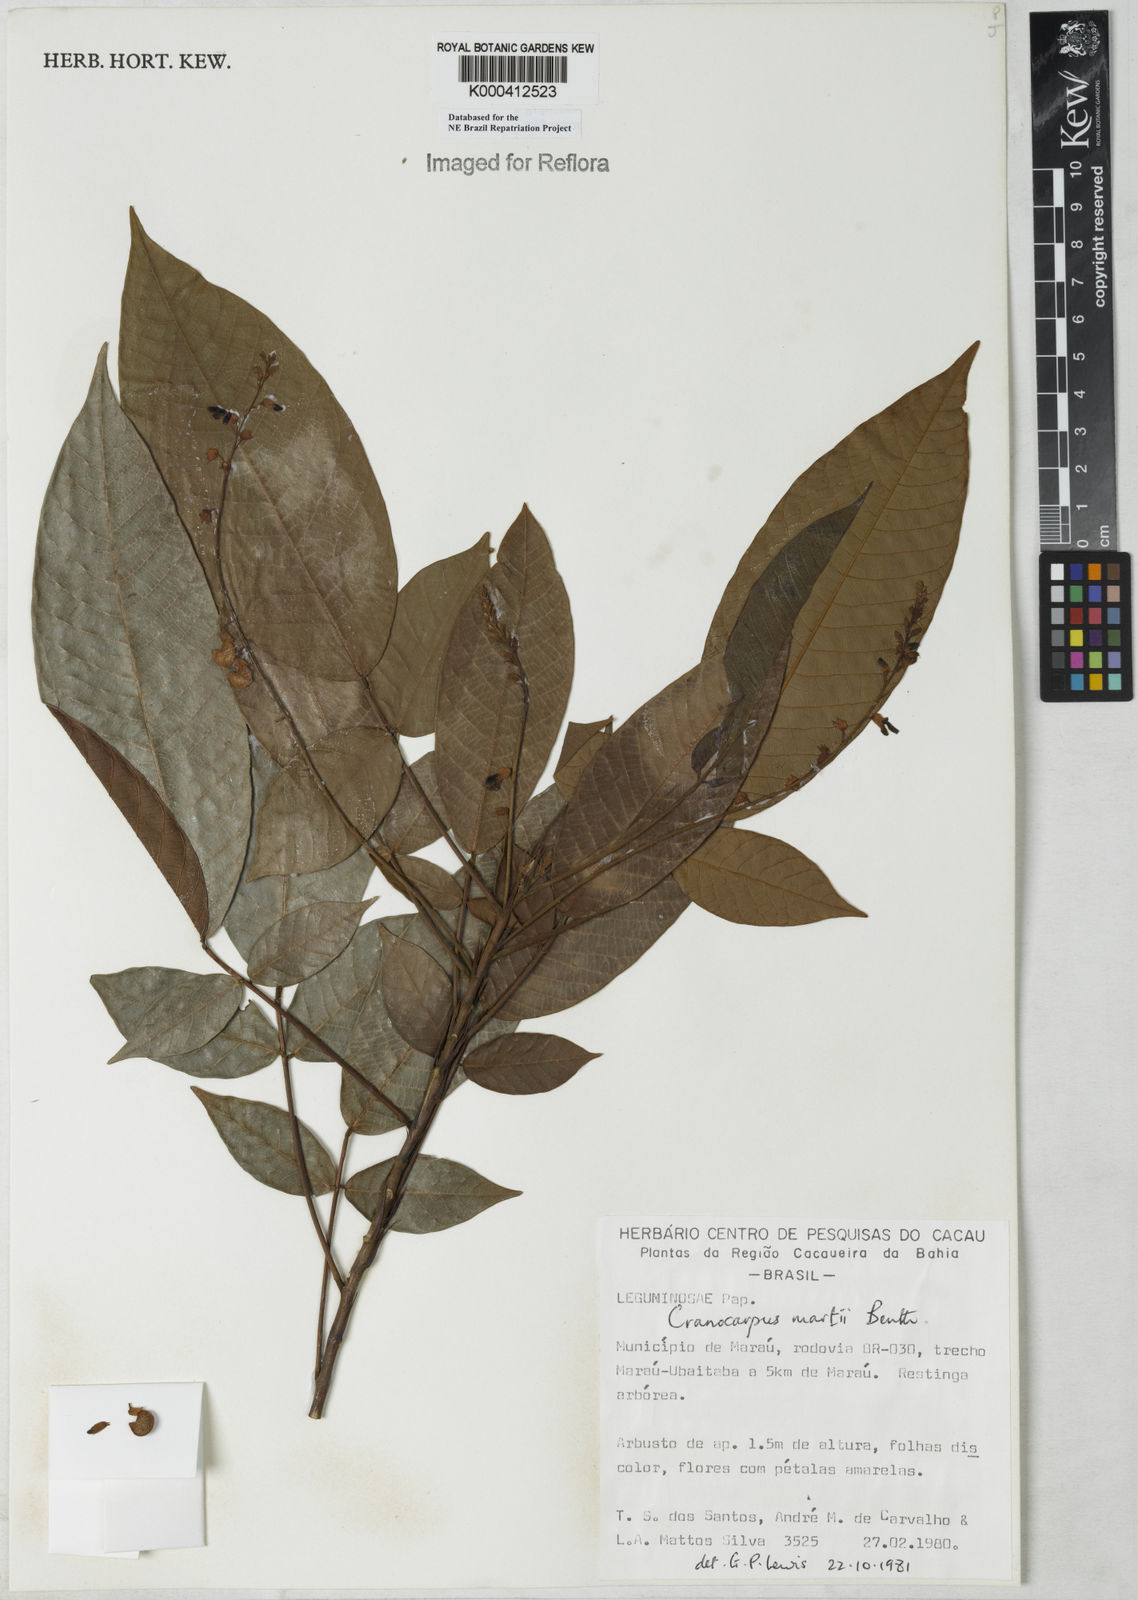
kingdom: Plantae
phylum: Tracheophyta
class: Magnoliopsida
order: Fabales
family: Fabaceae
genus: Cranocarpus
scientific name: Cranocarpus martii
